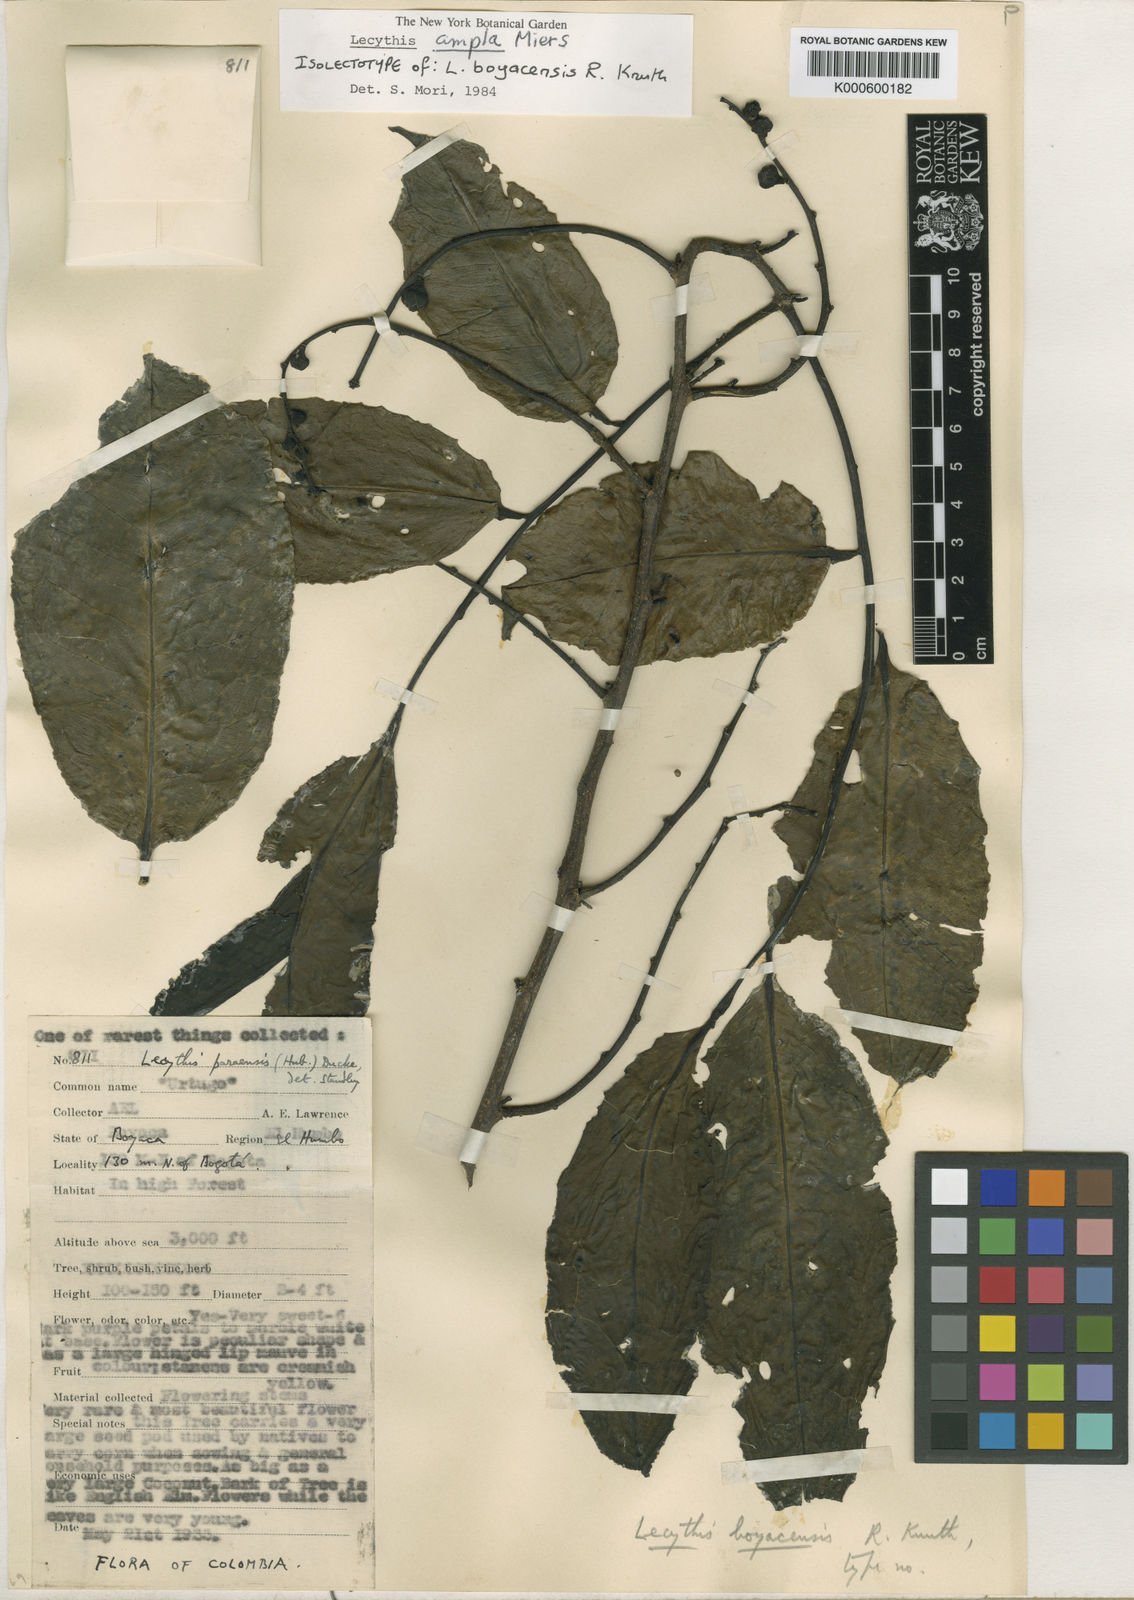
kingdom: Plantae
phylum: Tracheophyta
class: Magnoliopsida
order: Ericales
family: Lecythidaceae
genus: Lecythis
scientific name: Lecythis ampla
